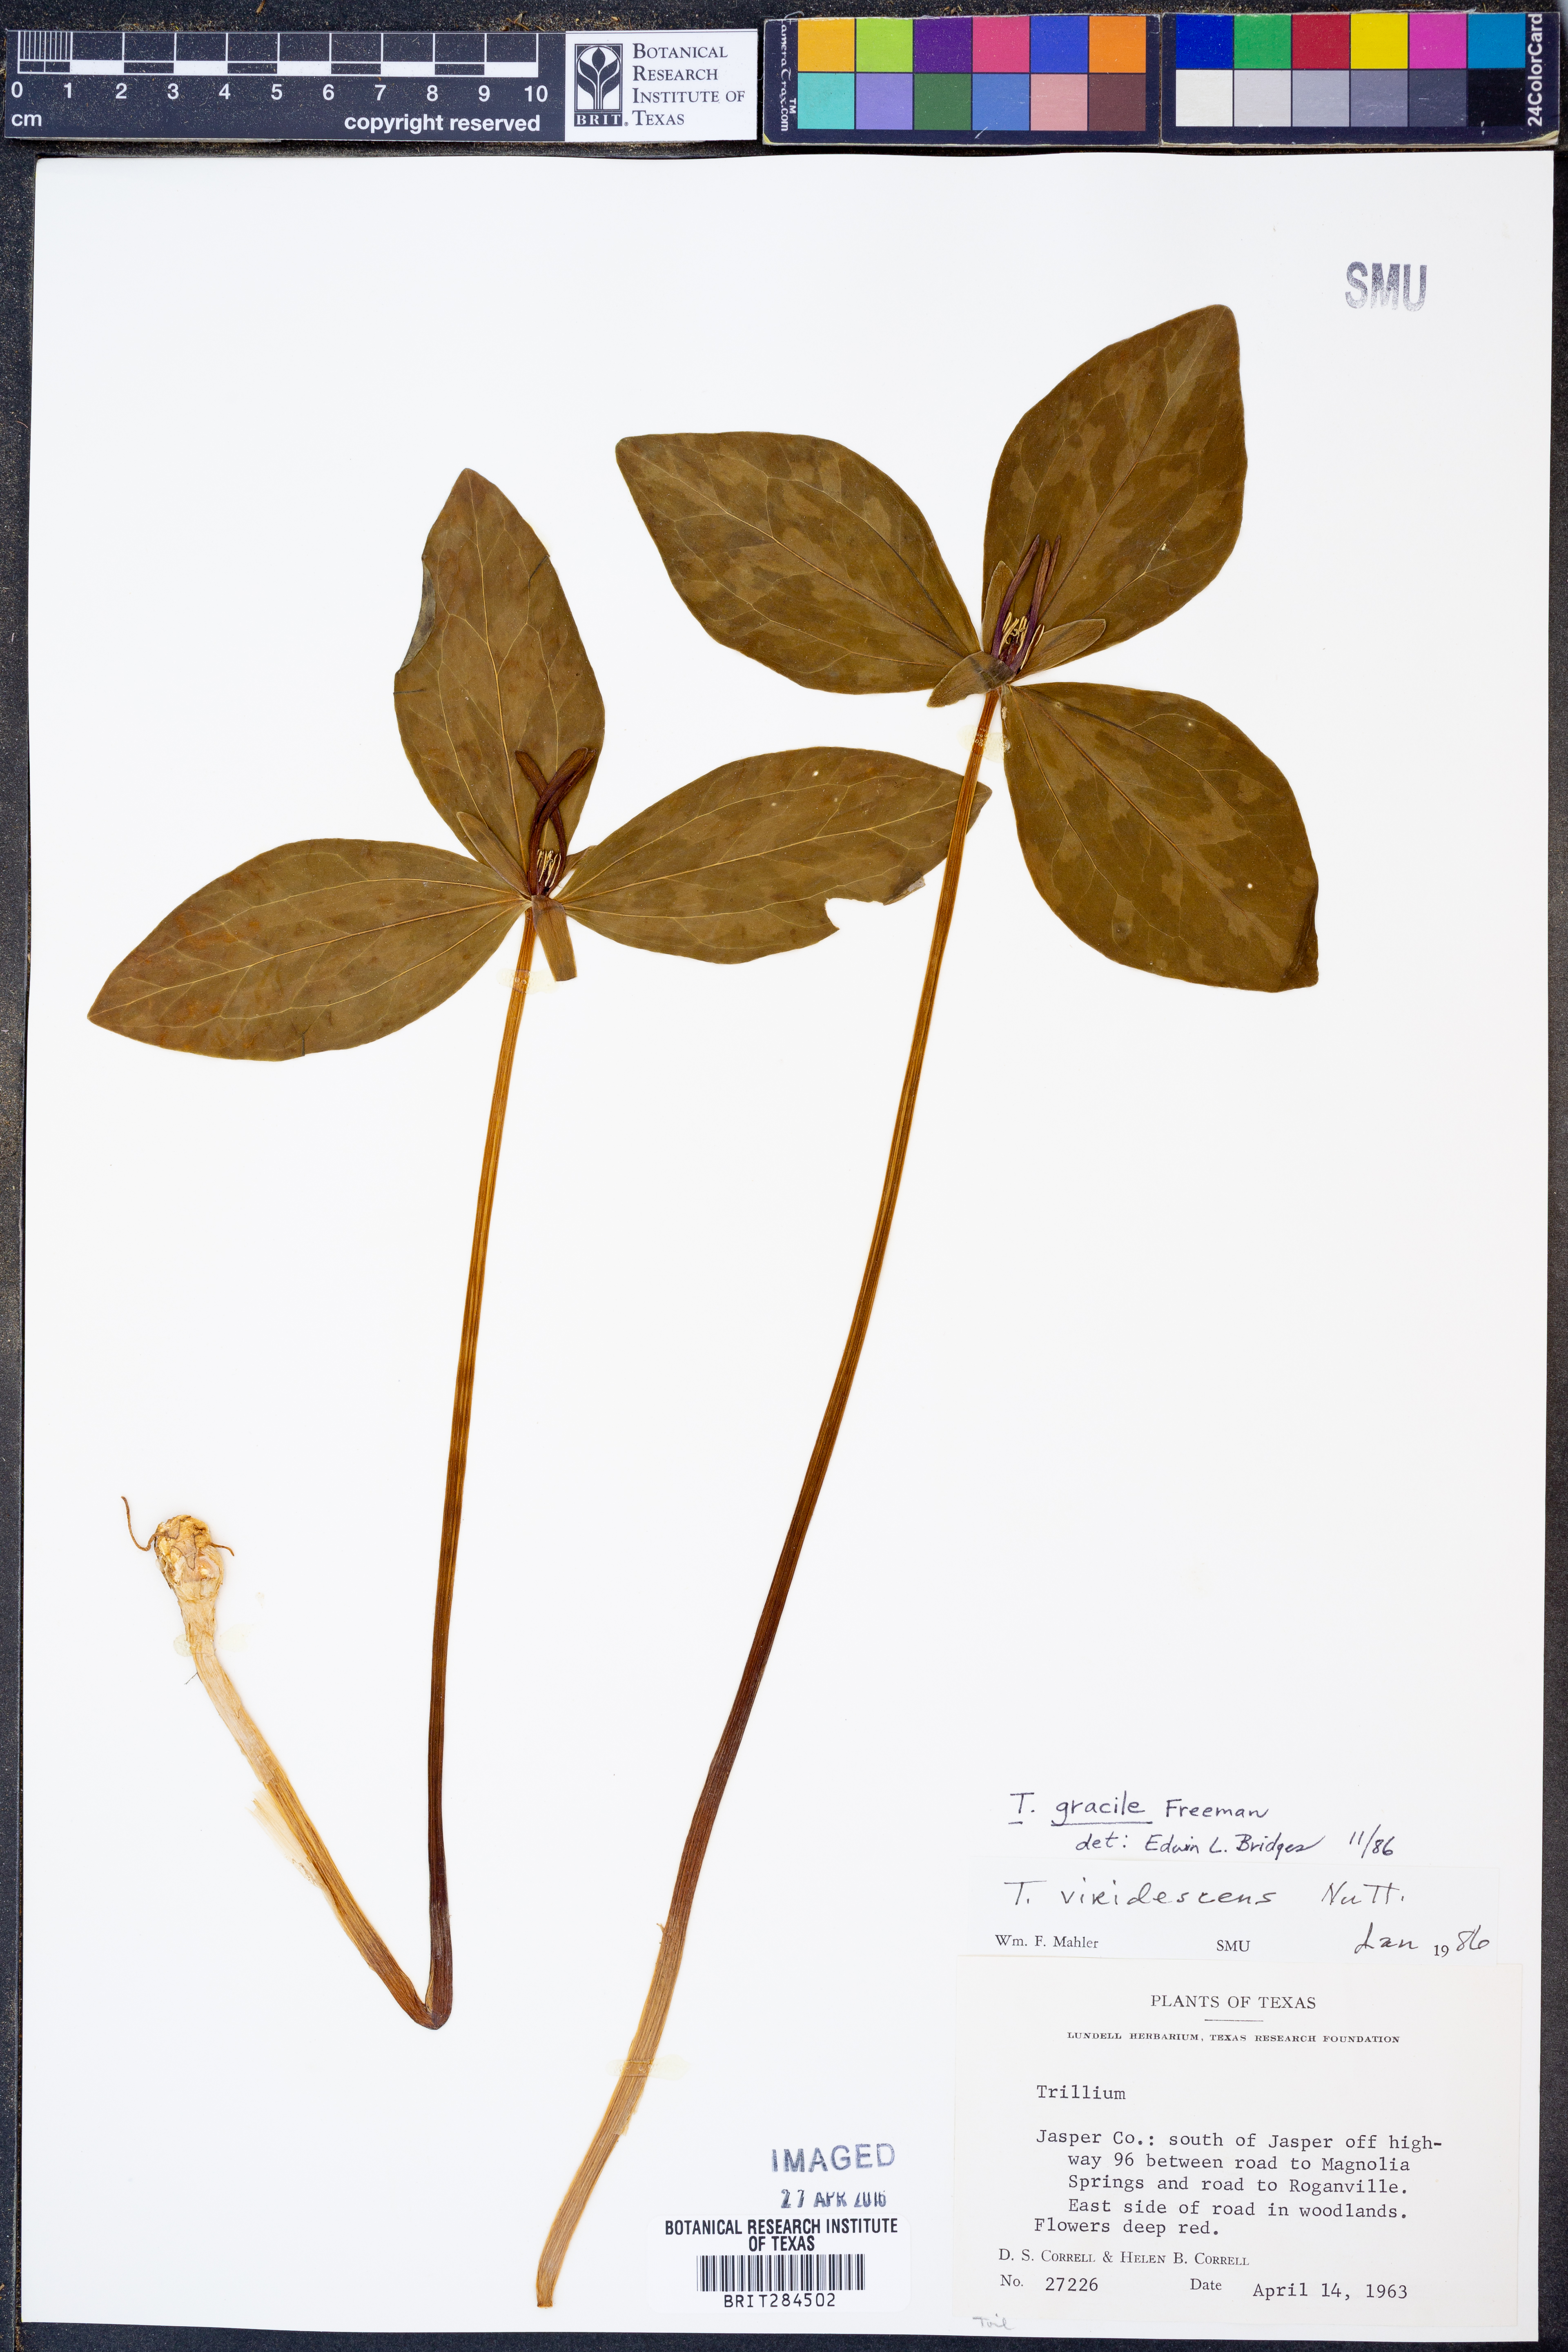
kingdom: Plantae
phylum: Tracheophyta
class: Liliopsida
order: Liliales
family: Melanthiaceae
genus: Trillium
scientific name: Trillium gracile
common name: Graceful trillium
